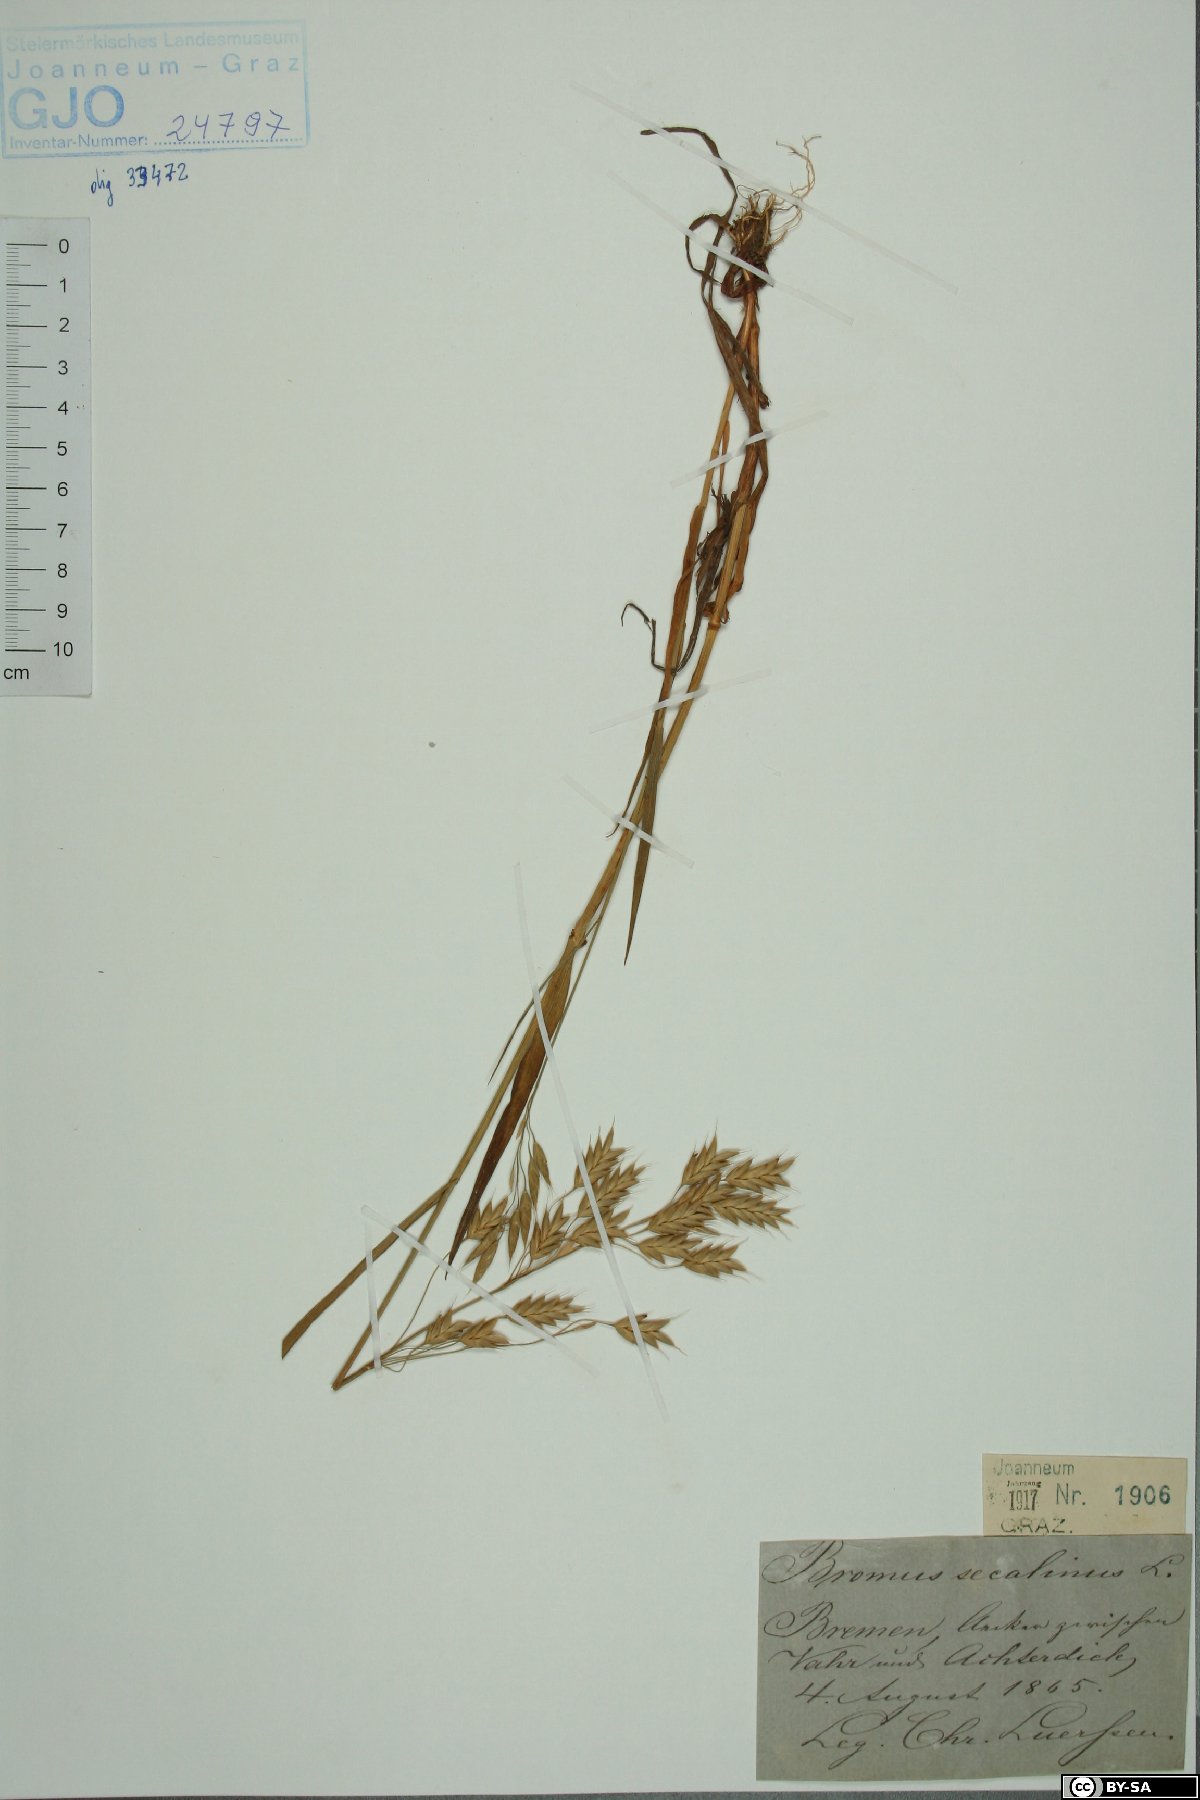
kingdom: Plantae
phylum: Tracheophyta
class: Liliopsida
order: Poales
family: Poaceae
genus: Bromus
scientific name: Bromus secalinus
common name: Rye brome
